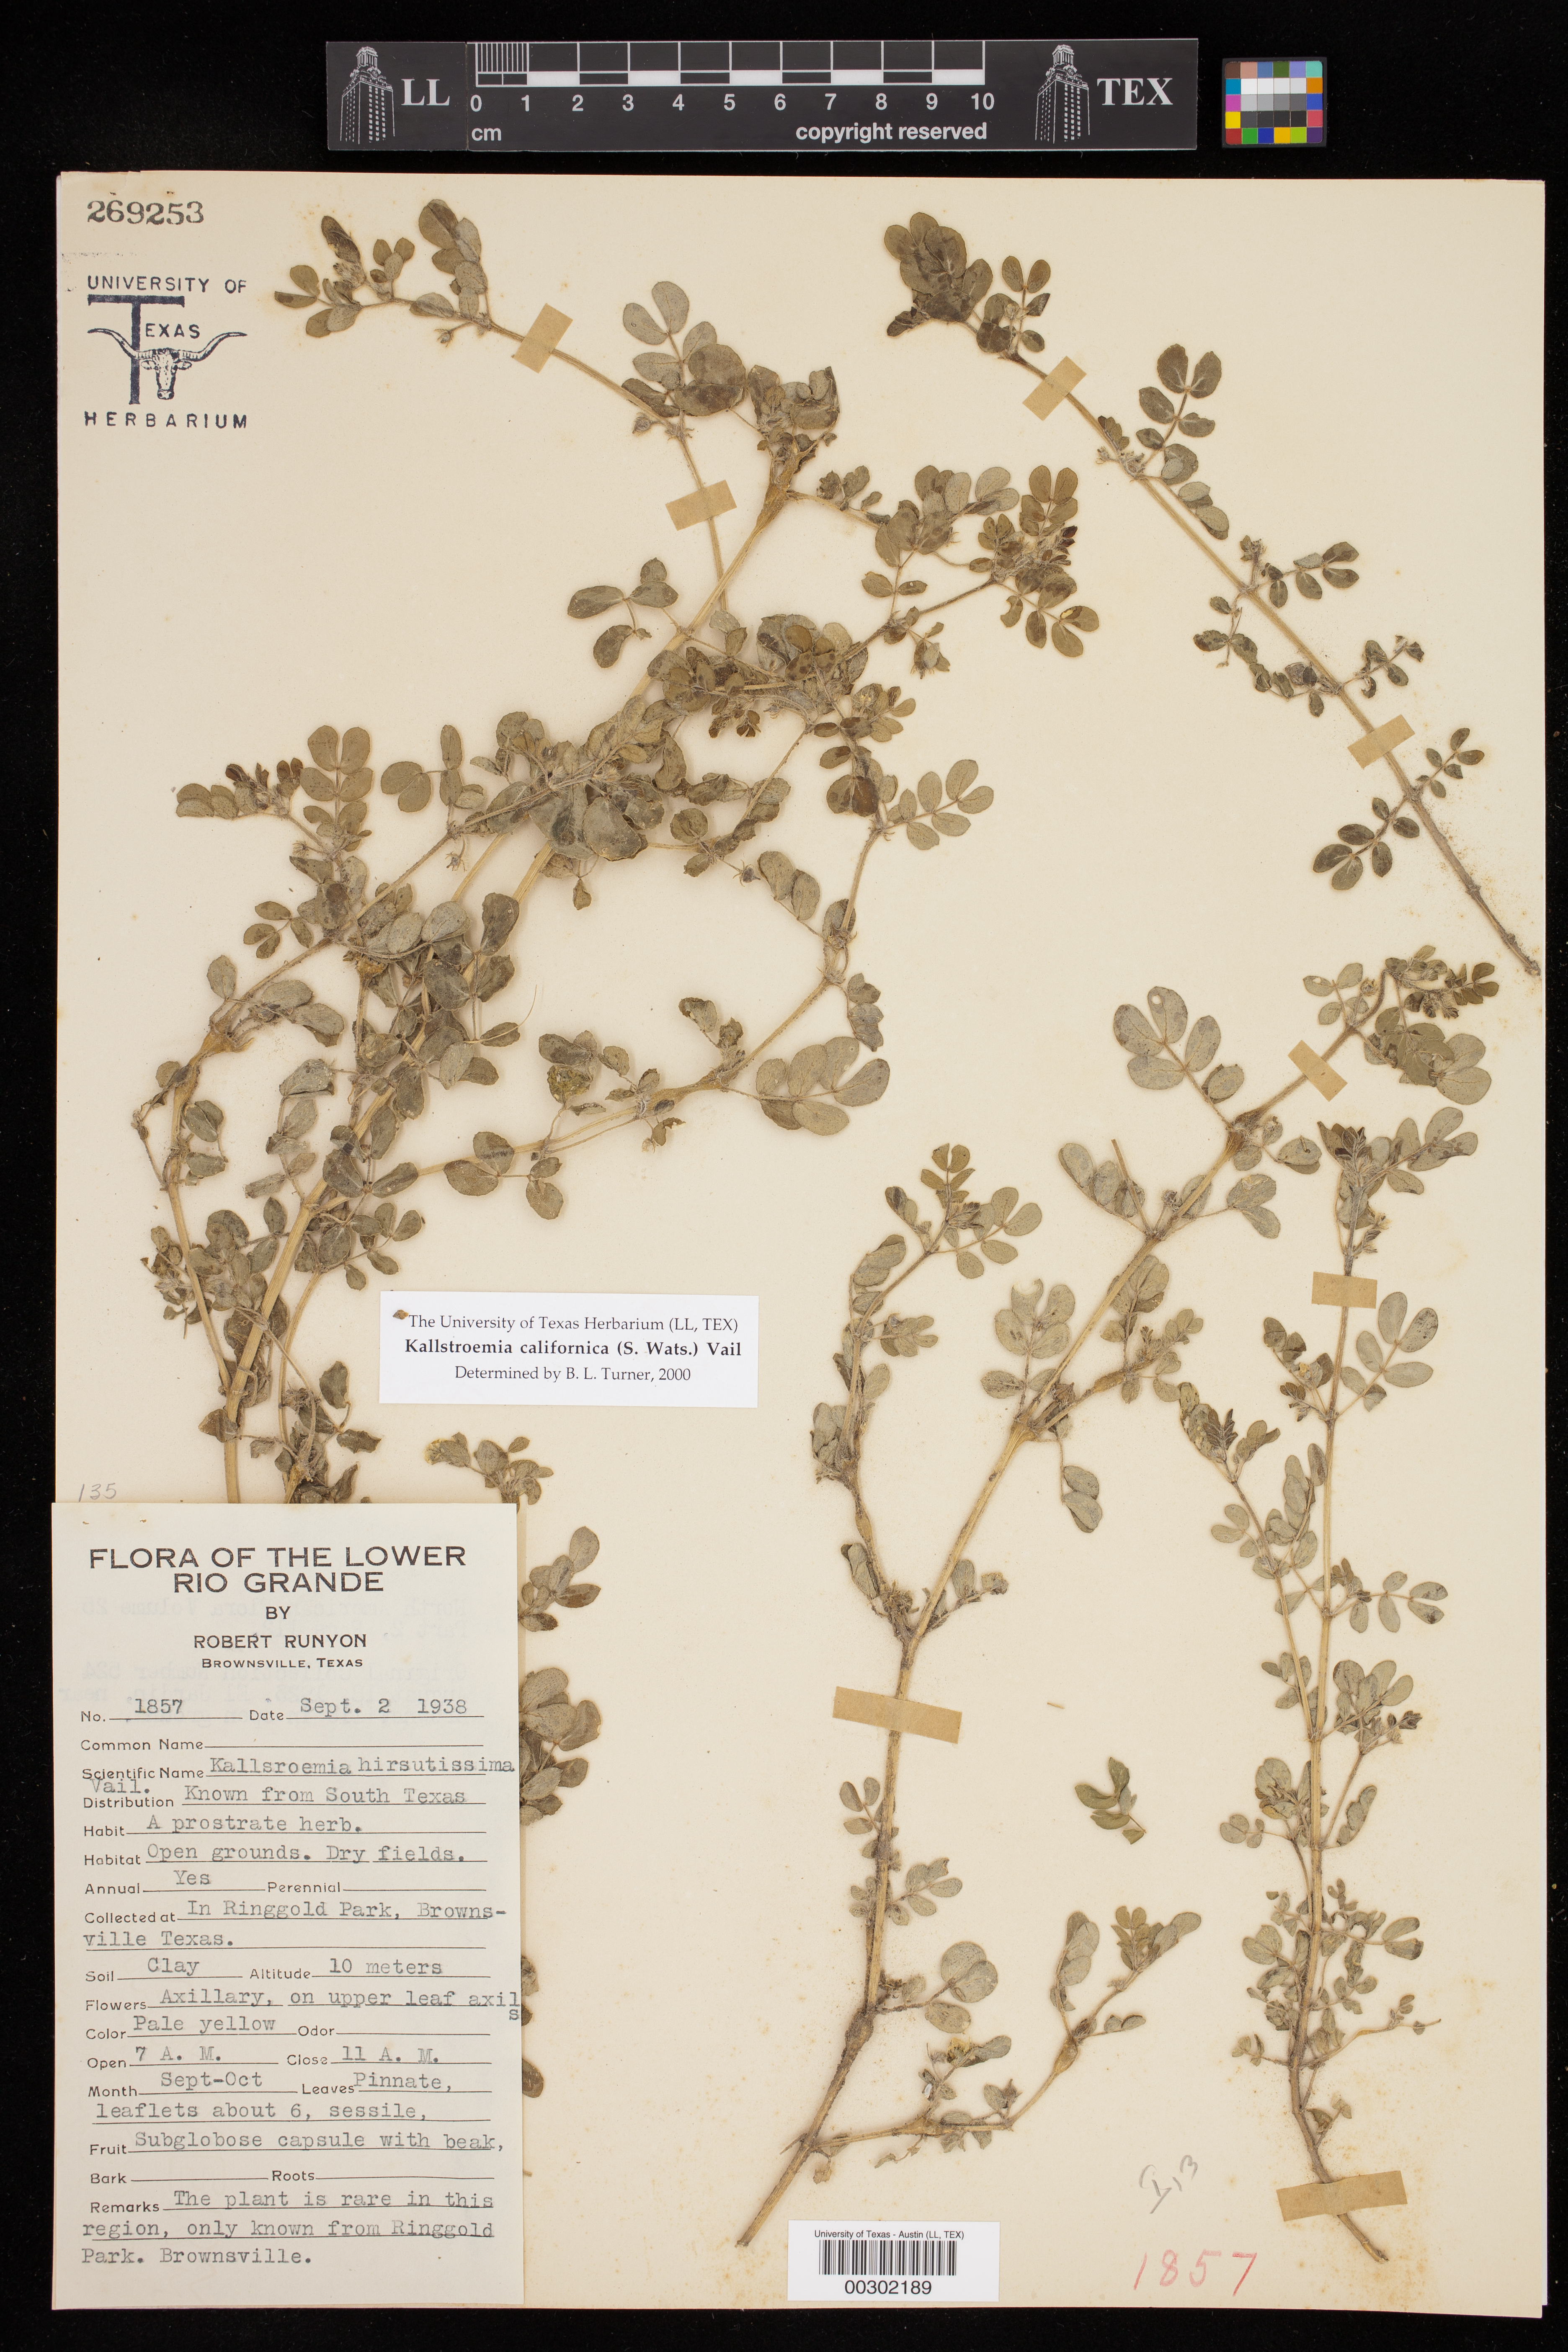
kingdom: Plantae
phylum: Tracheophyta
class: Magnoliopsida
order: Zygophyllales
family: Zygophyllaceae
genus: Kallstroemia
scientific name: Kallstroemia californica
